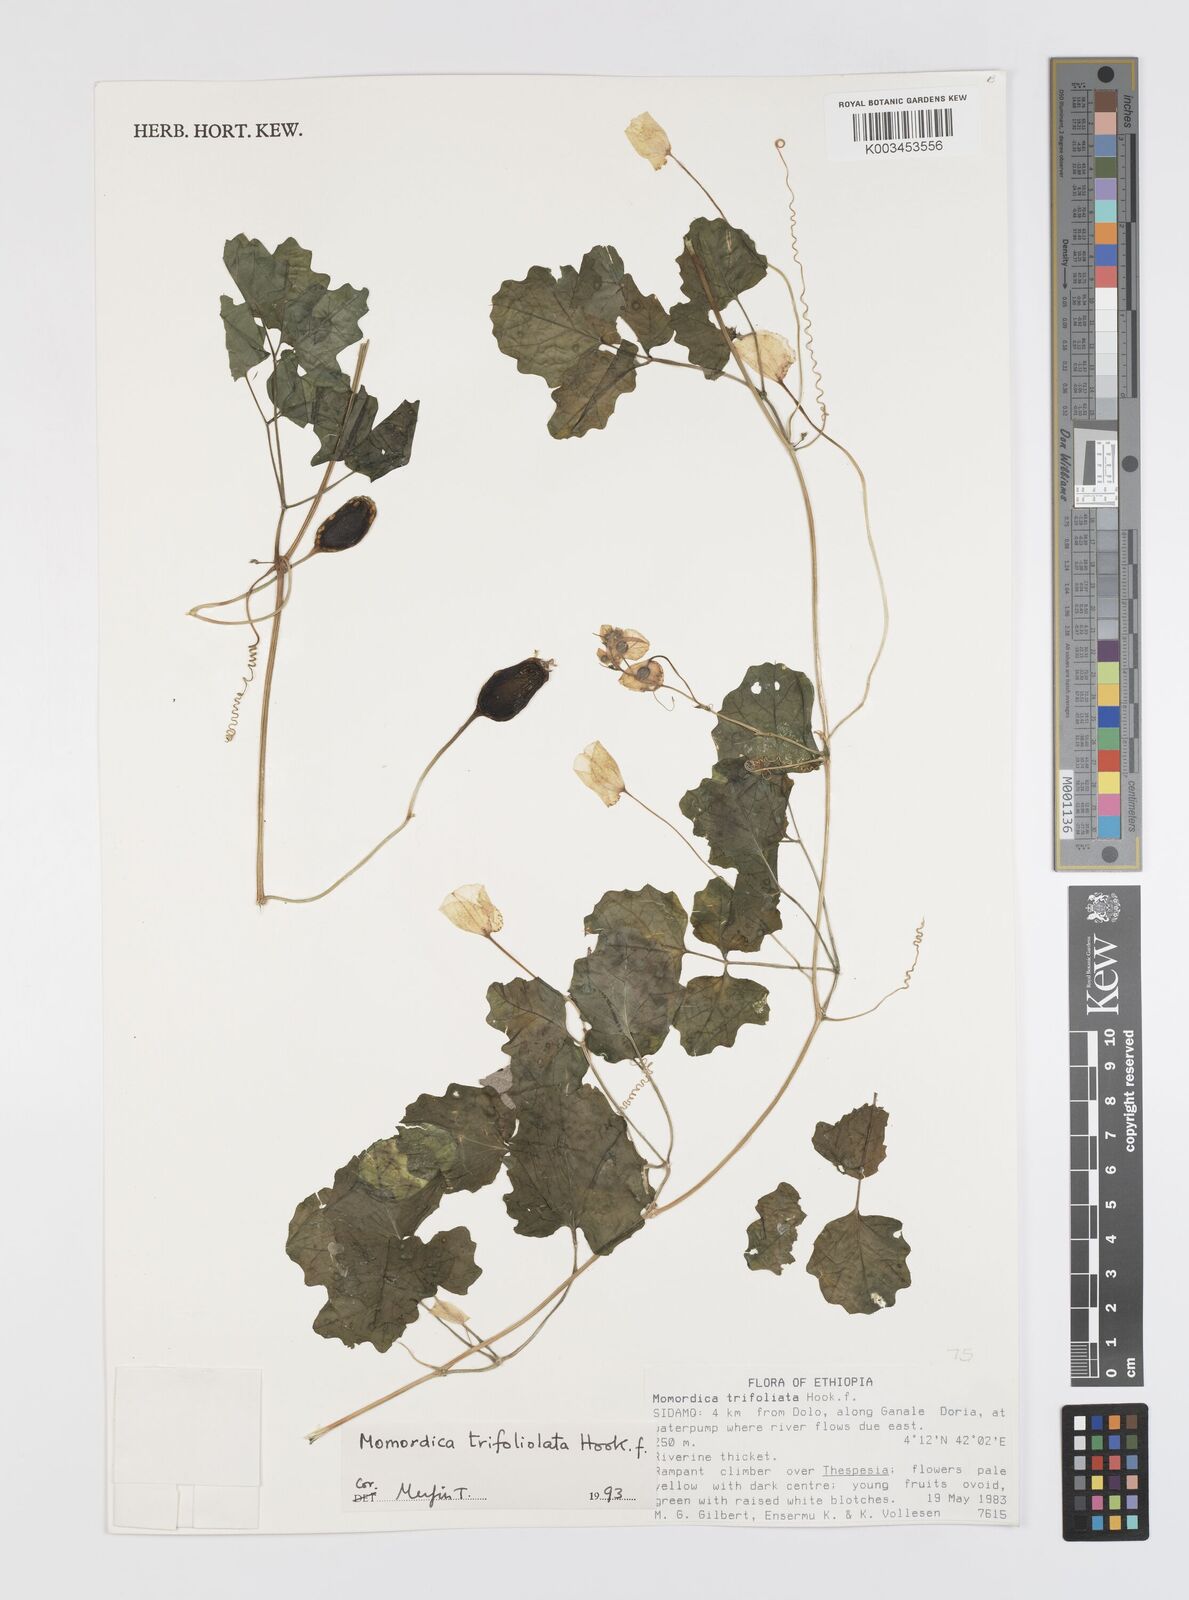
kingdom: Plantae
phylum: Tracheophyta
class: Magnoliopsida
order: Cucurbitales
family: Cucurbitaceae
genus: Momordica
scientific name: Momordica trifoliolata
